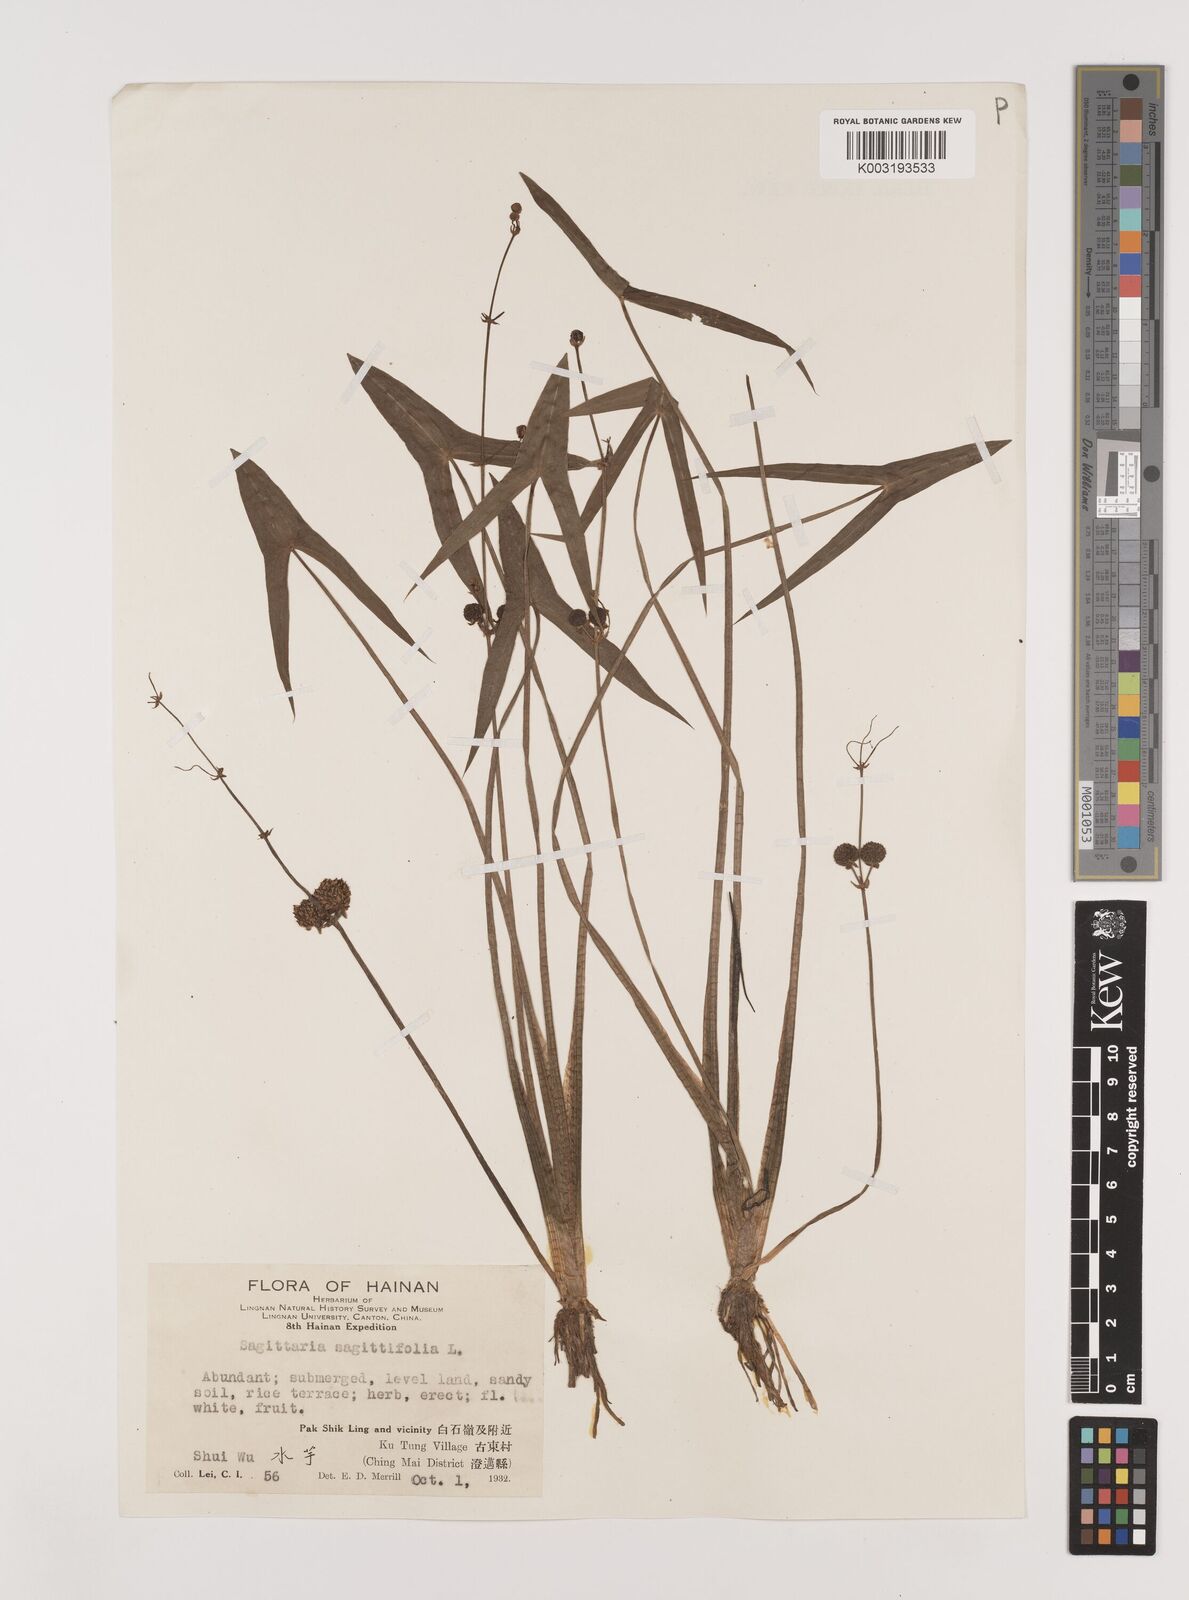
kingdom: Plantae
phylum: Tracheophyta
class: Liliopsida
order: Alismatales
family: Alismataceae
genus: Sagittaria
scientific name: Sagittaria sagittifolia
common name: Arrowhead
